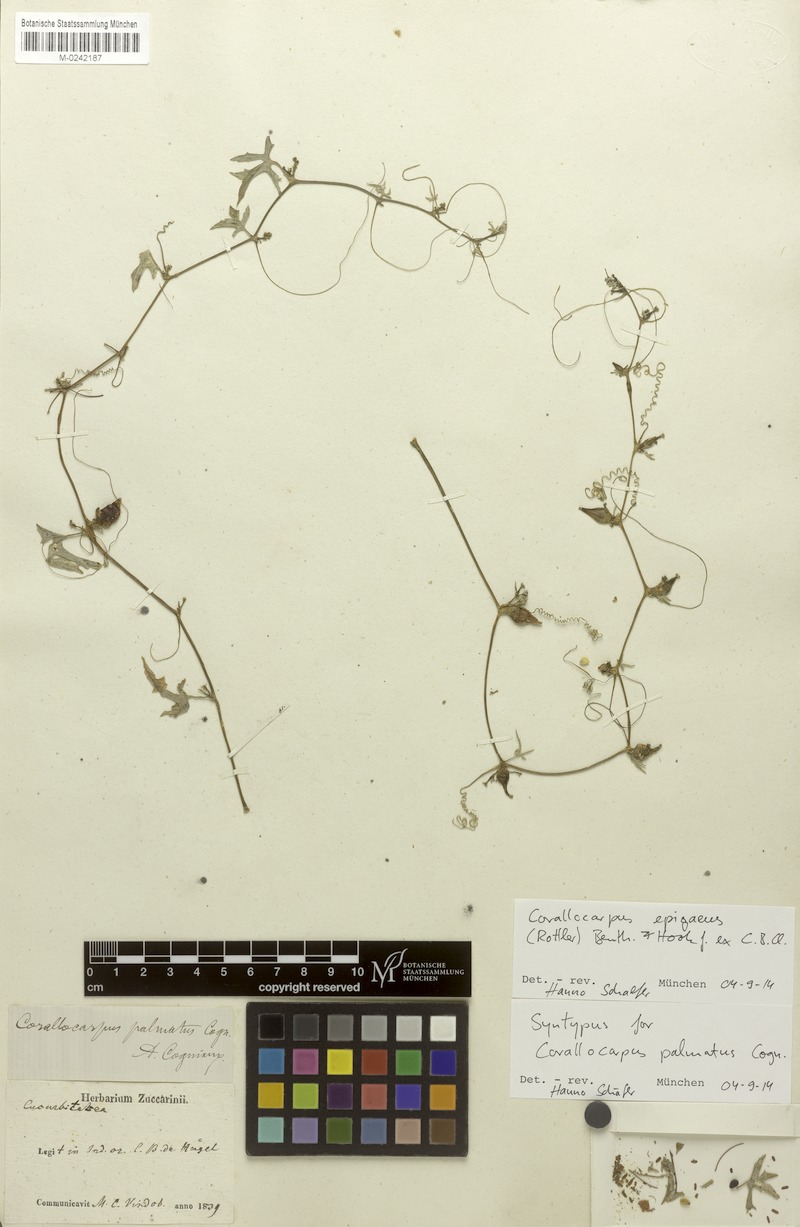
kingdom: Plantae
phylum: Tracheophyta
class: Magnoliopsida
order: Cucurbitales
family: Cucurbitaceae
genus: Corallocarpus
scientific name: Corallocarpus epigaeus
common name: Indian bryonia
